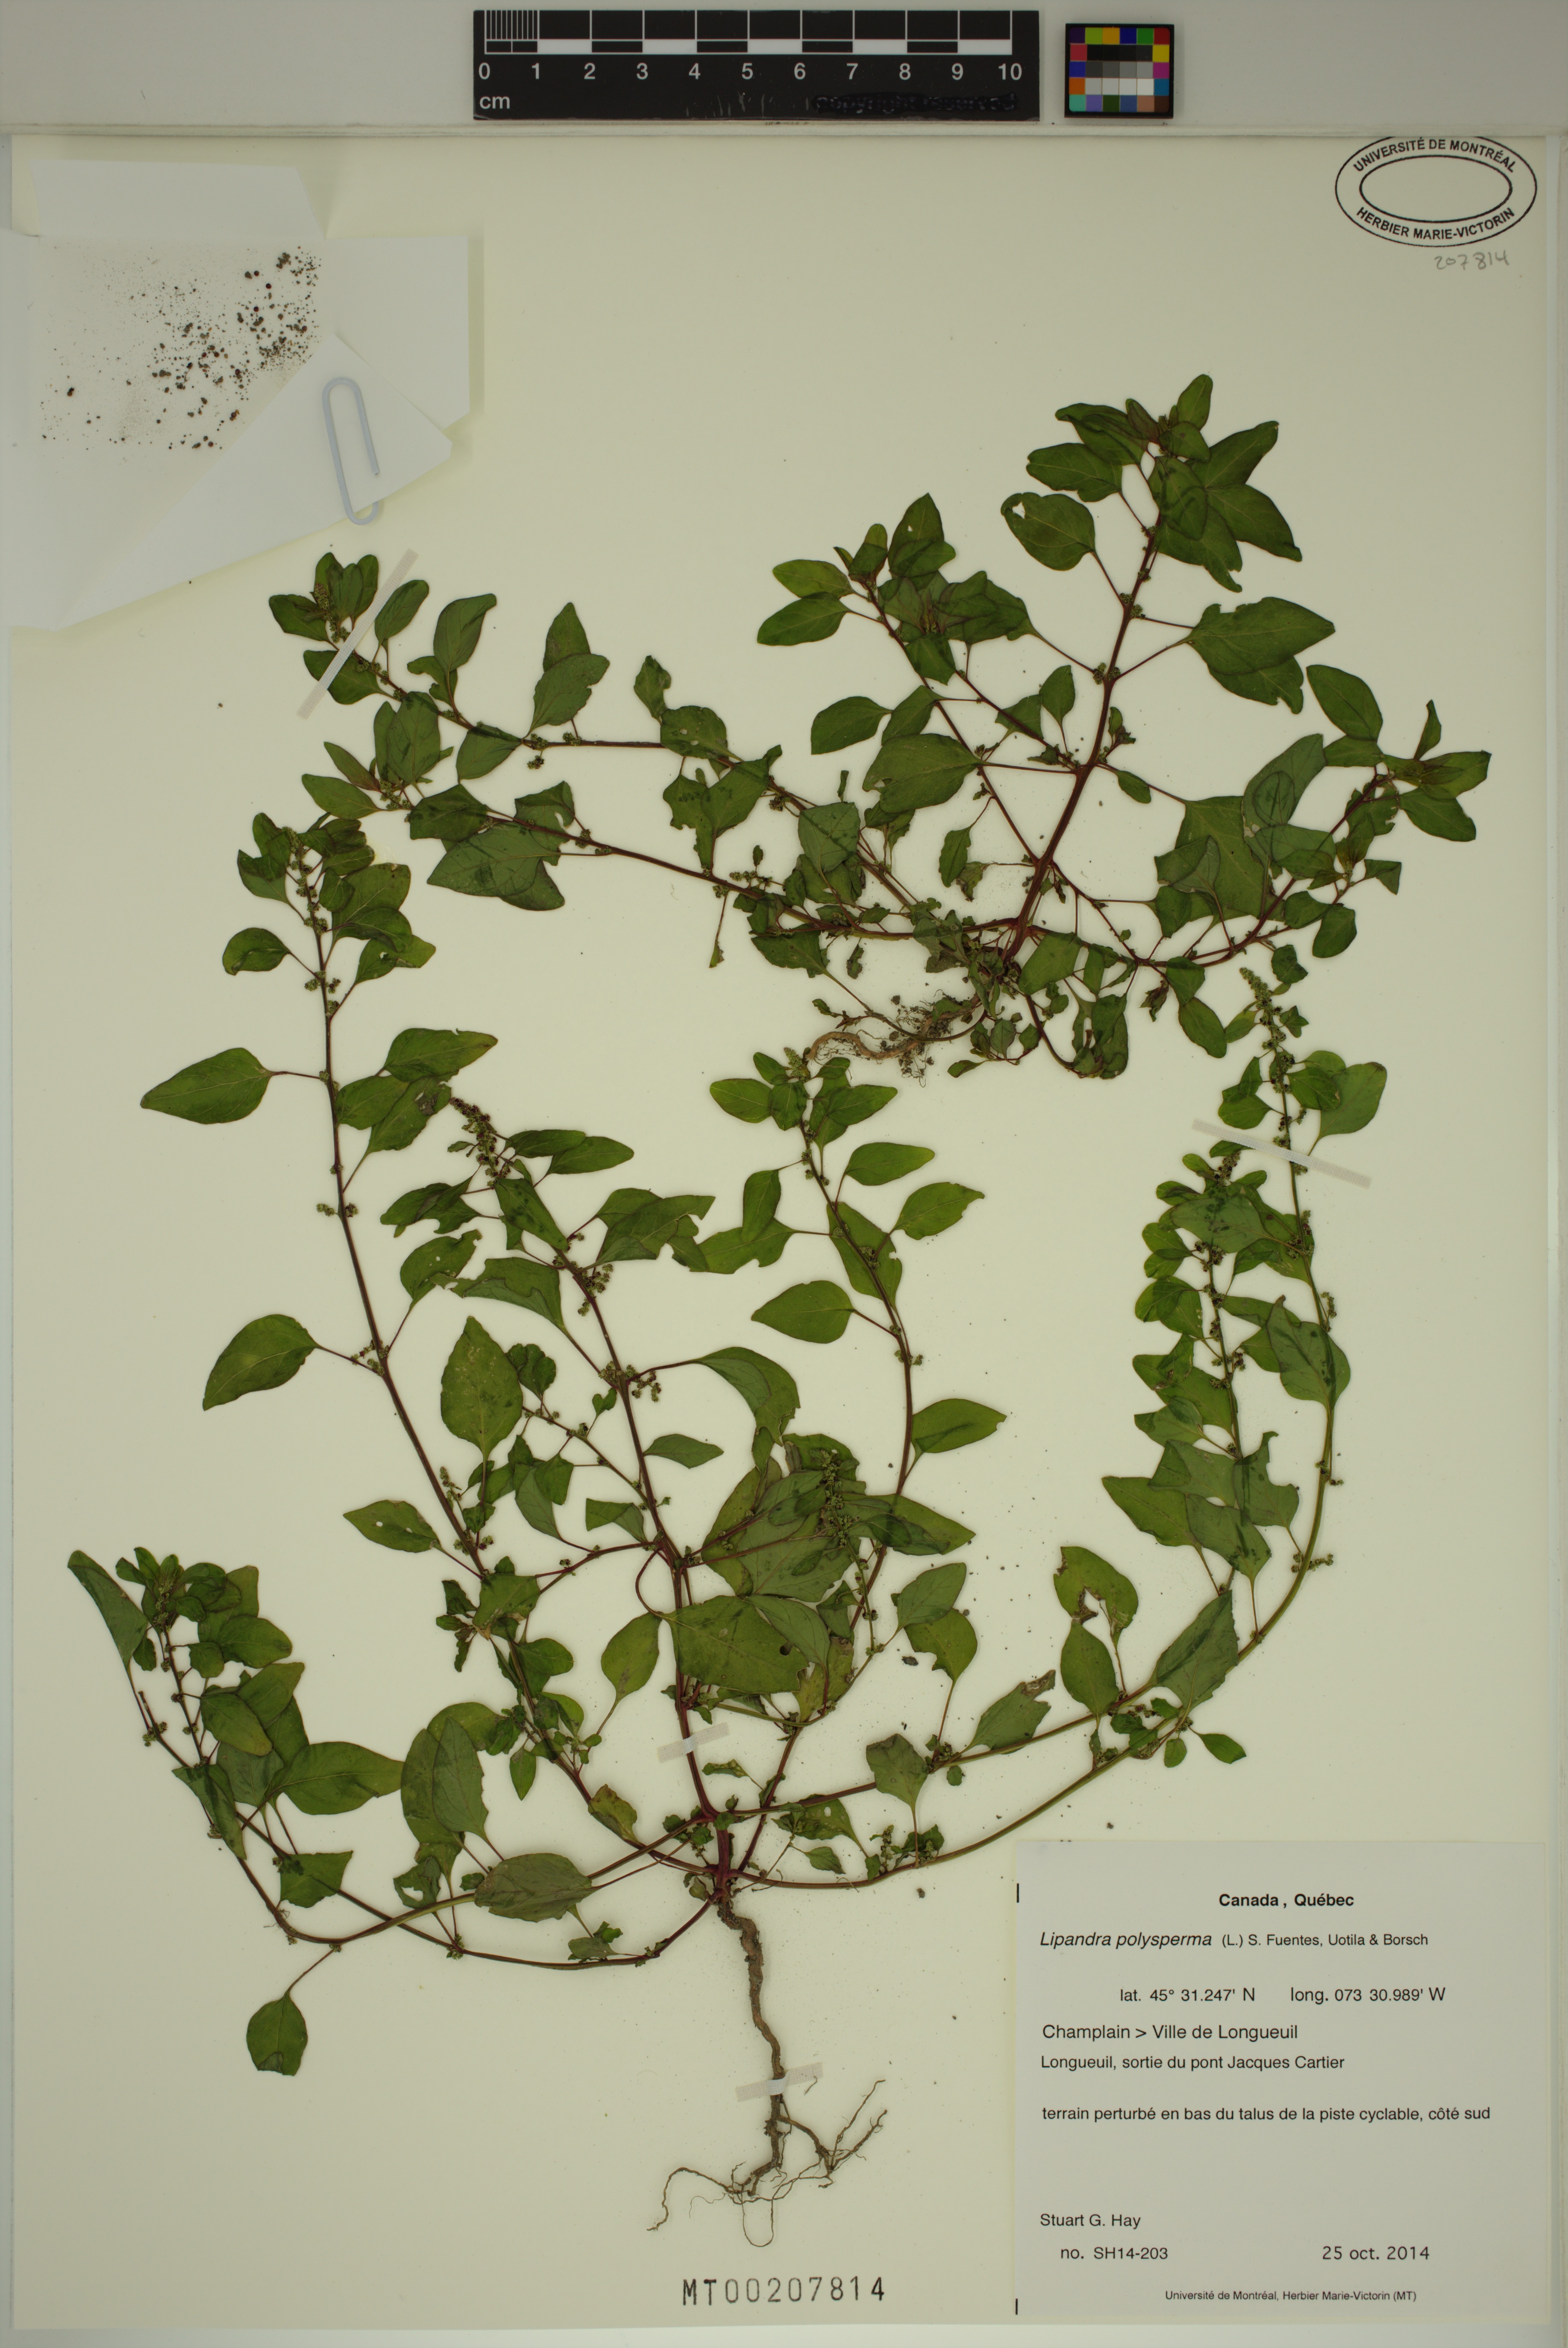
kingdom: Plantae
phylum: Tracheophyta
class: Magnoliopsida
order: Caryophyllales
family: Amaranthaceae
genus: Lipandra
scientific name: Lipandra polysperma
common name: Many-seed goosefoot
